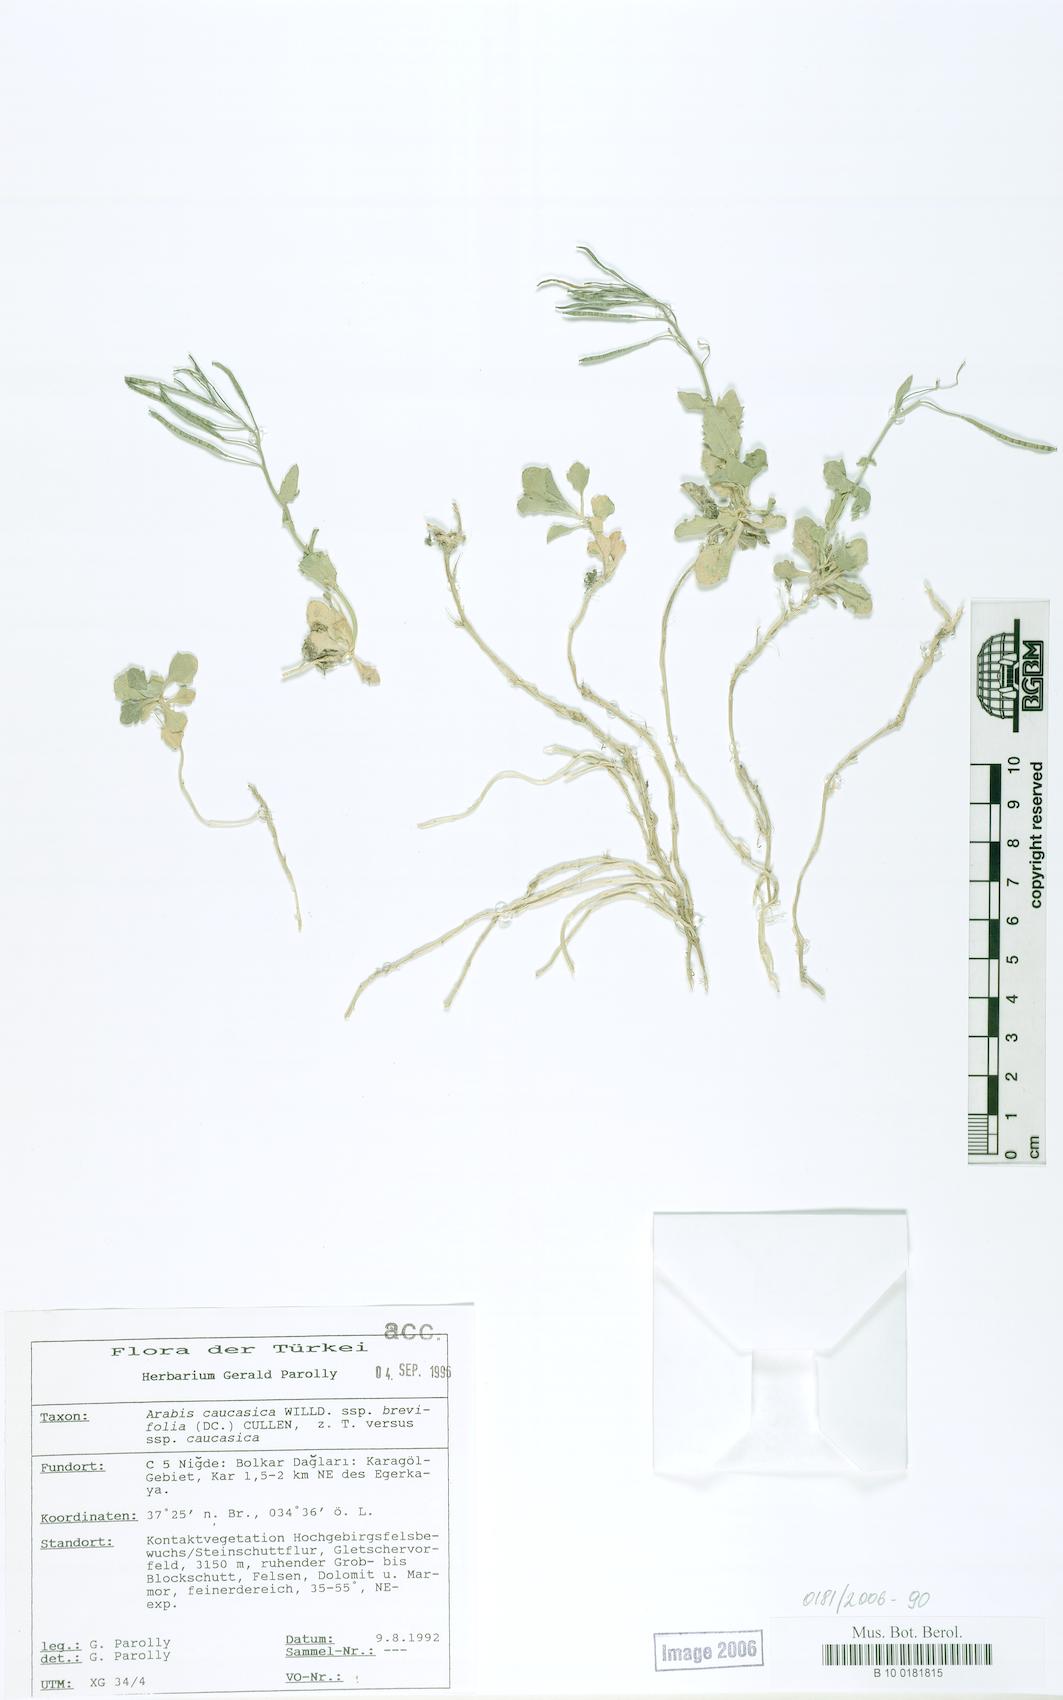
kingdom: Plantae
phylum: Tracheophyta
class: Magnoliopsida
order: Brassicales
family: Brassicaceae
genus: Arabis
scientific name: Arabis caucasica
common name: Gray rockcress
